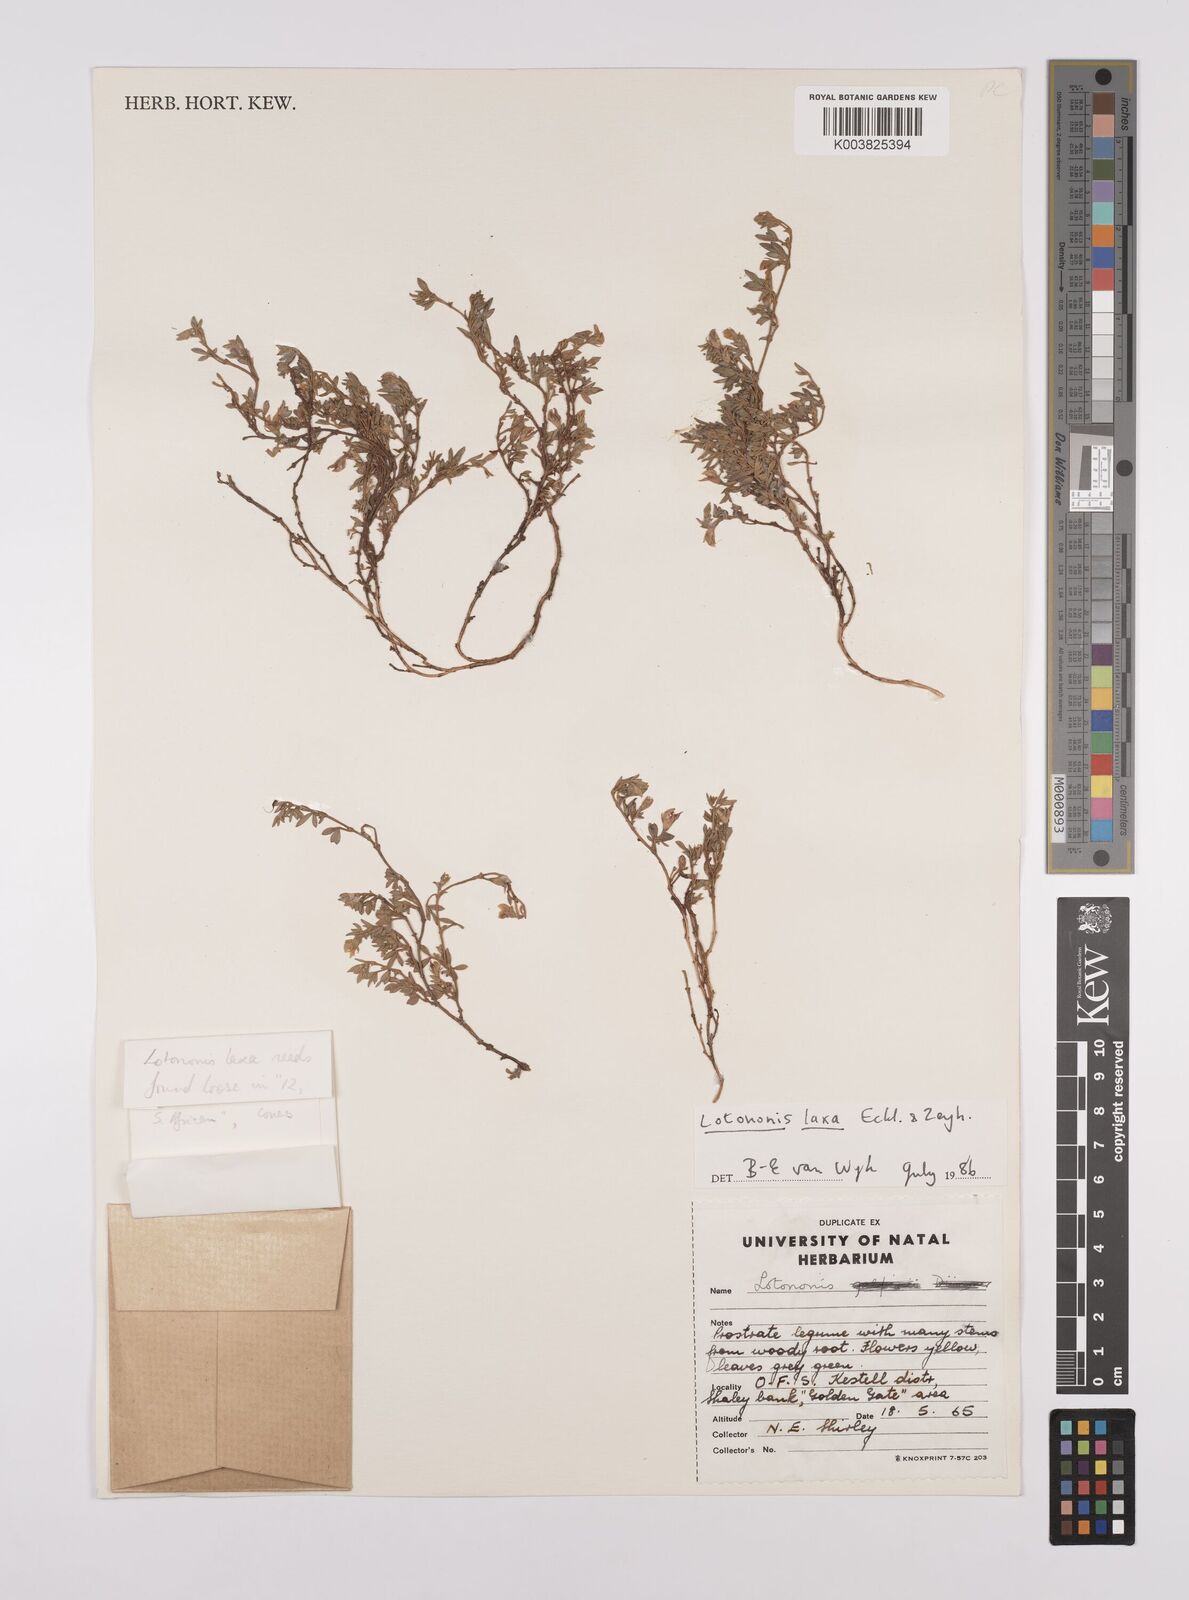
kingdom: Plantae
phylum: Tracheophyta
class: Magnoliopsida
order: Fabales
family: Fabaceae
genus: Lotononis
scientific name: Lotononis laxa
